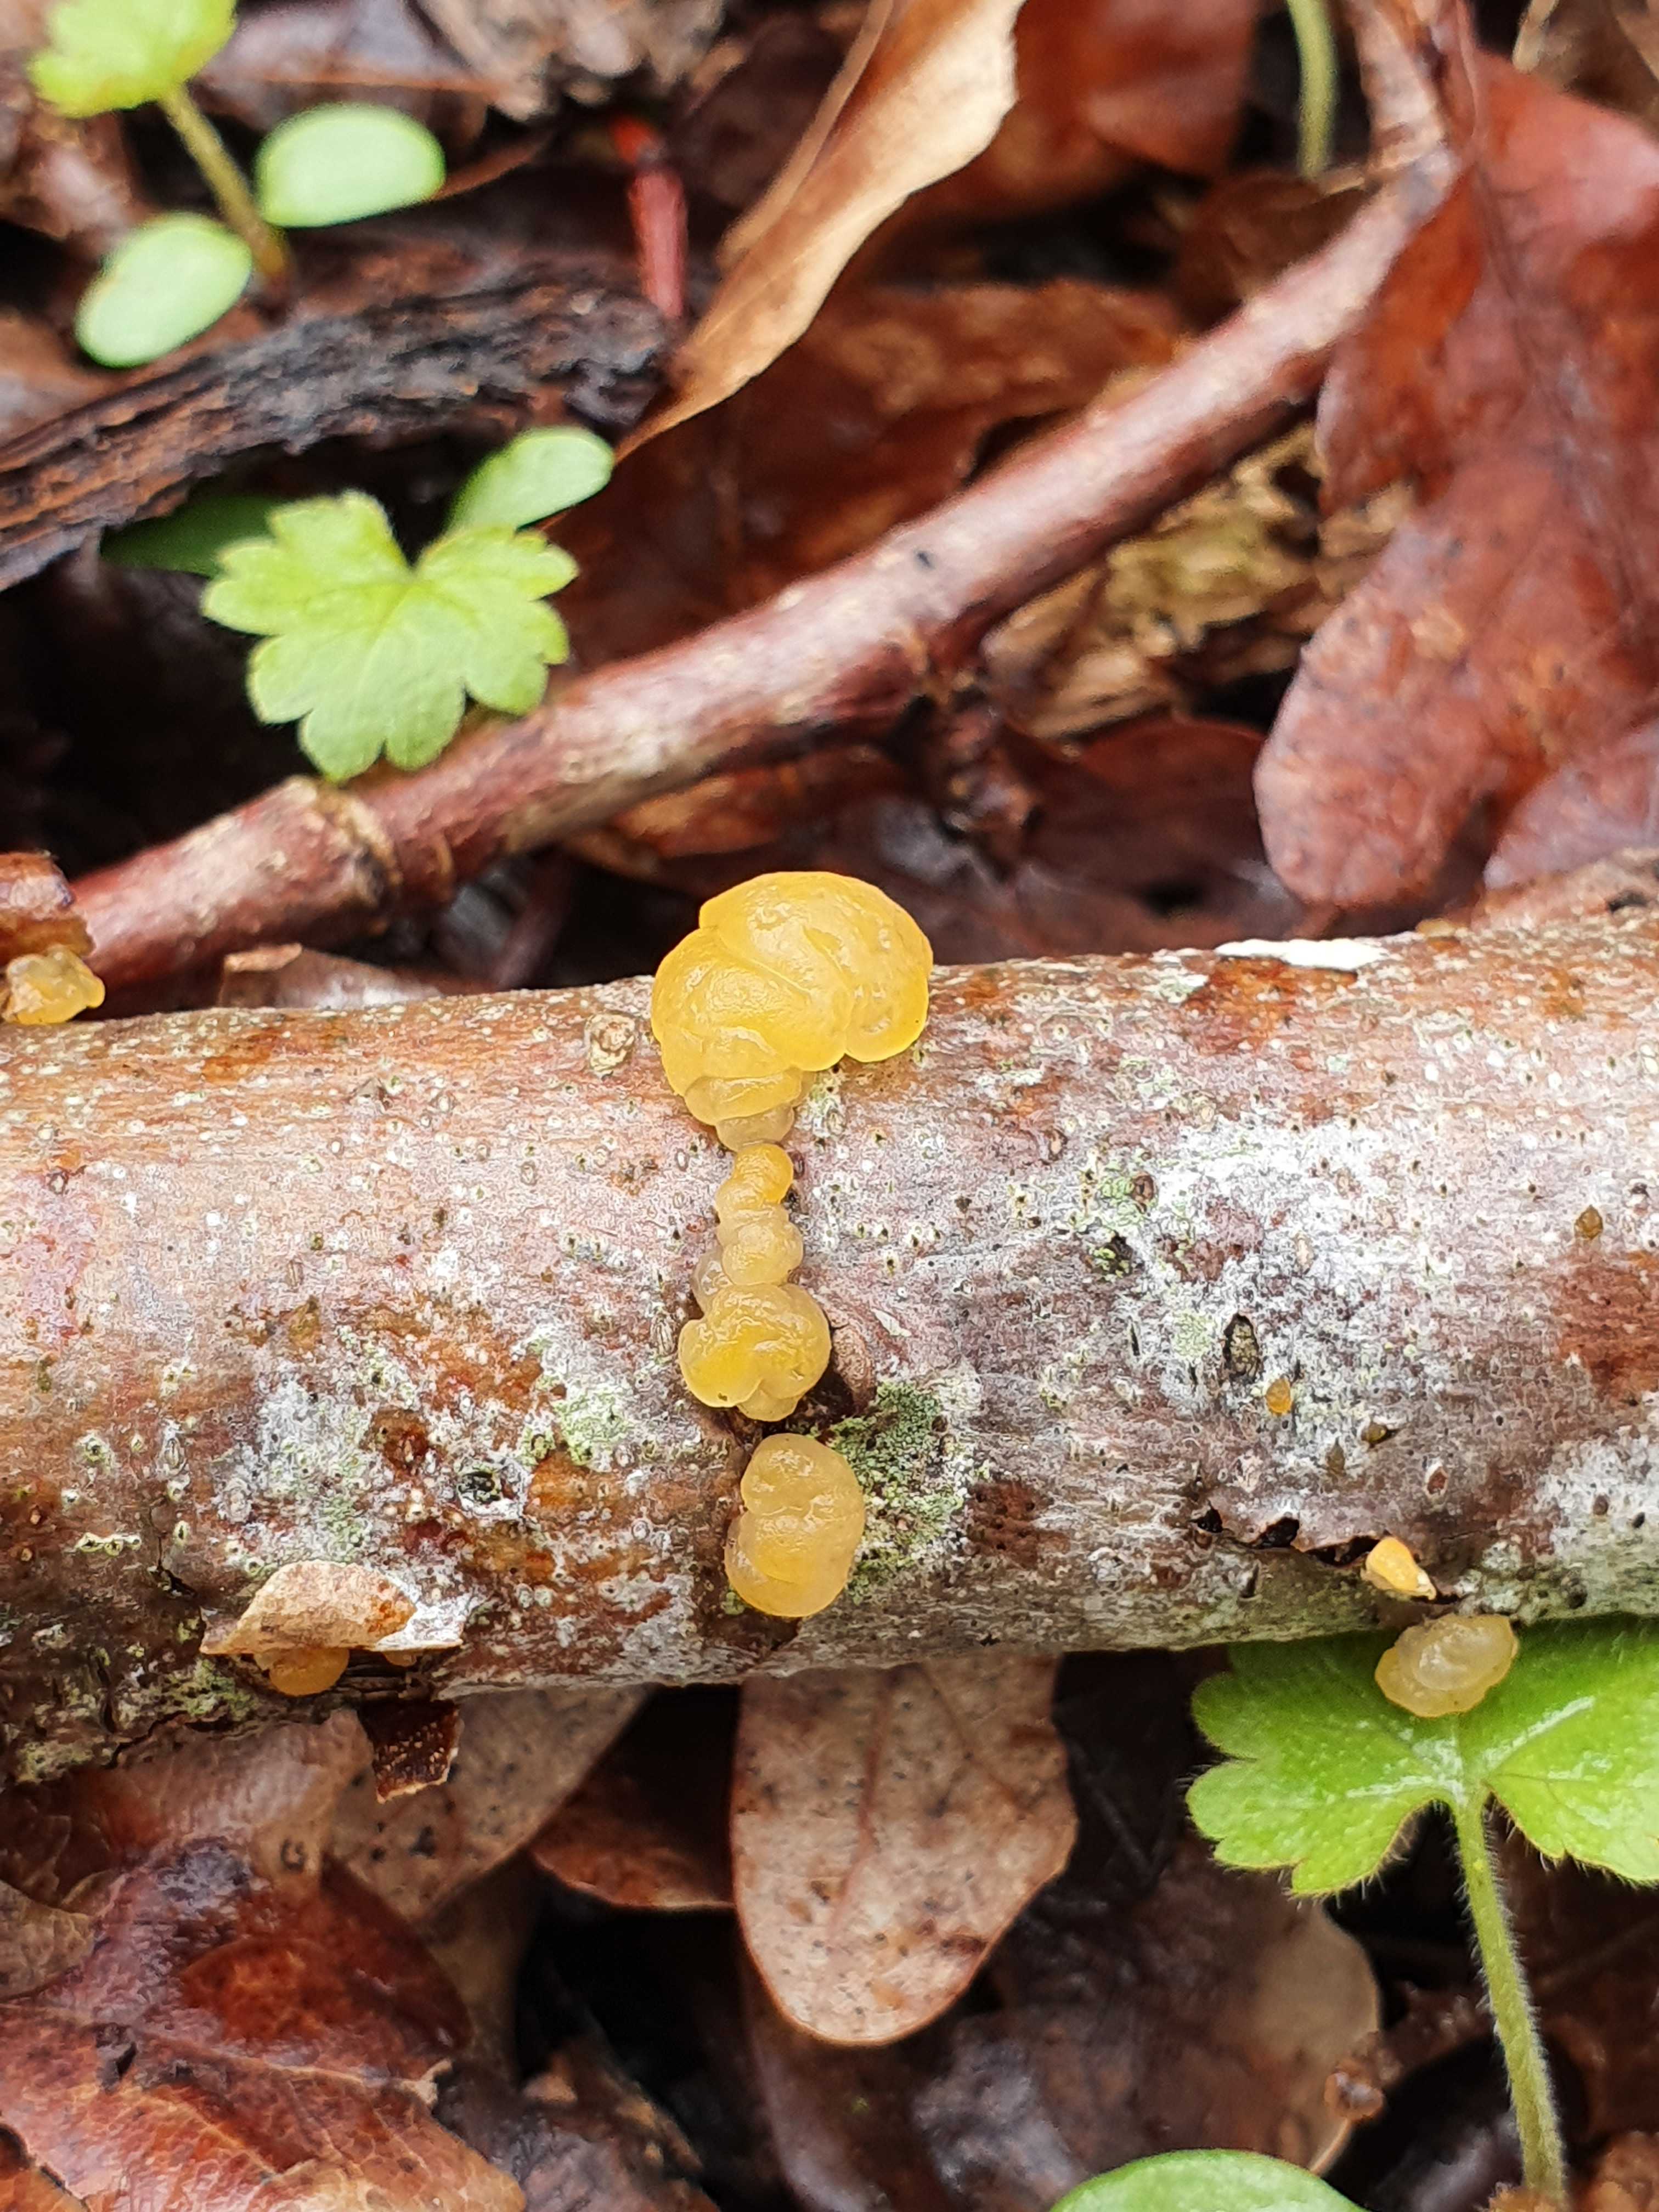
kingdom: Fungi
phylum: Basidiomycota
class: Dacrymycetes
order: Dacrymycetales
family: Dacrymycetaceae
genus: Dacrymyces
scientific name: Dacrymyces lacrymalis
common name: rynket tåresvamp
